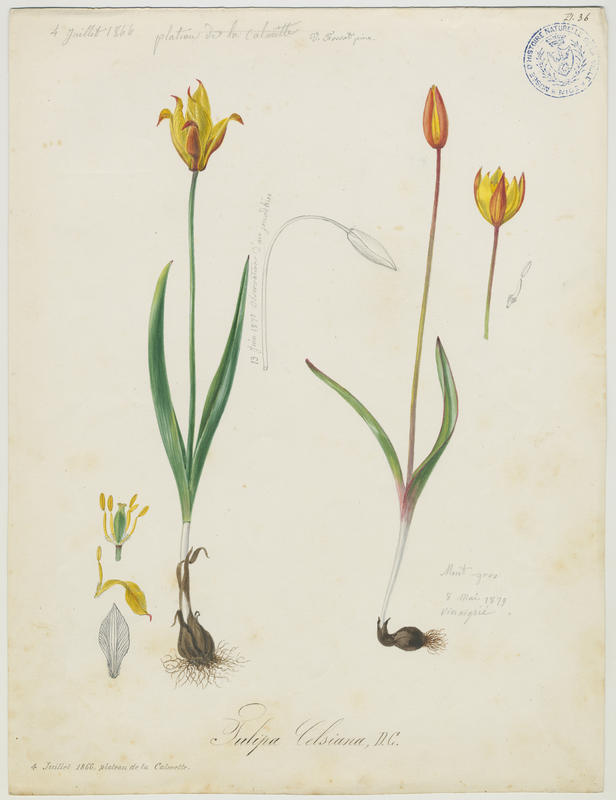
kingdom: Plantae
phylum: Tracheophyta
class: Liliopsida
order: Liliales
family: Liliaceae
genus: Tulipa
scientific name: Tulipa sylvestris
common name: Wild tulip
